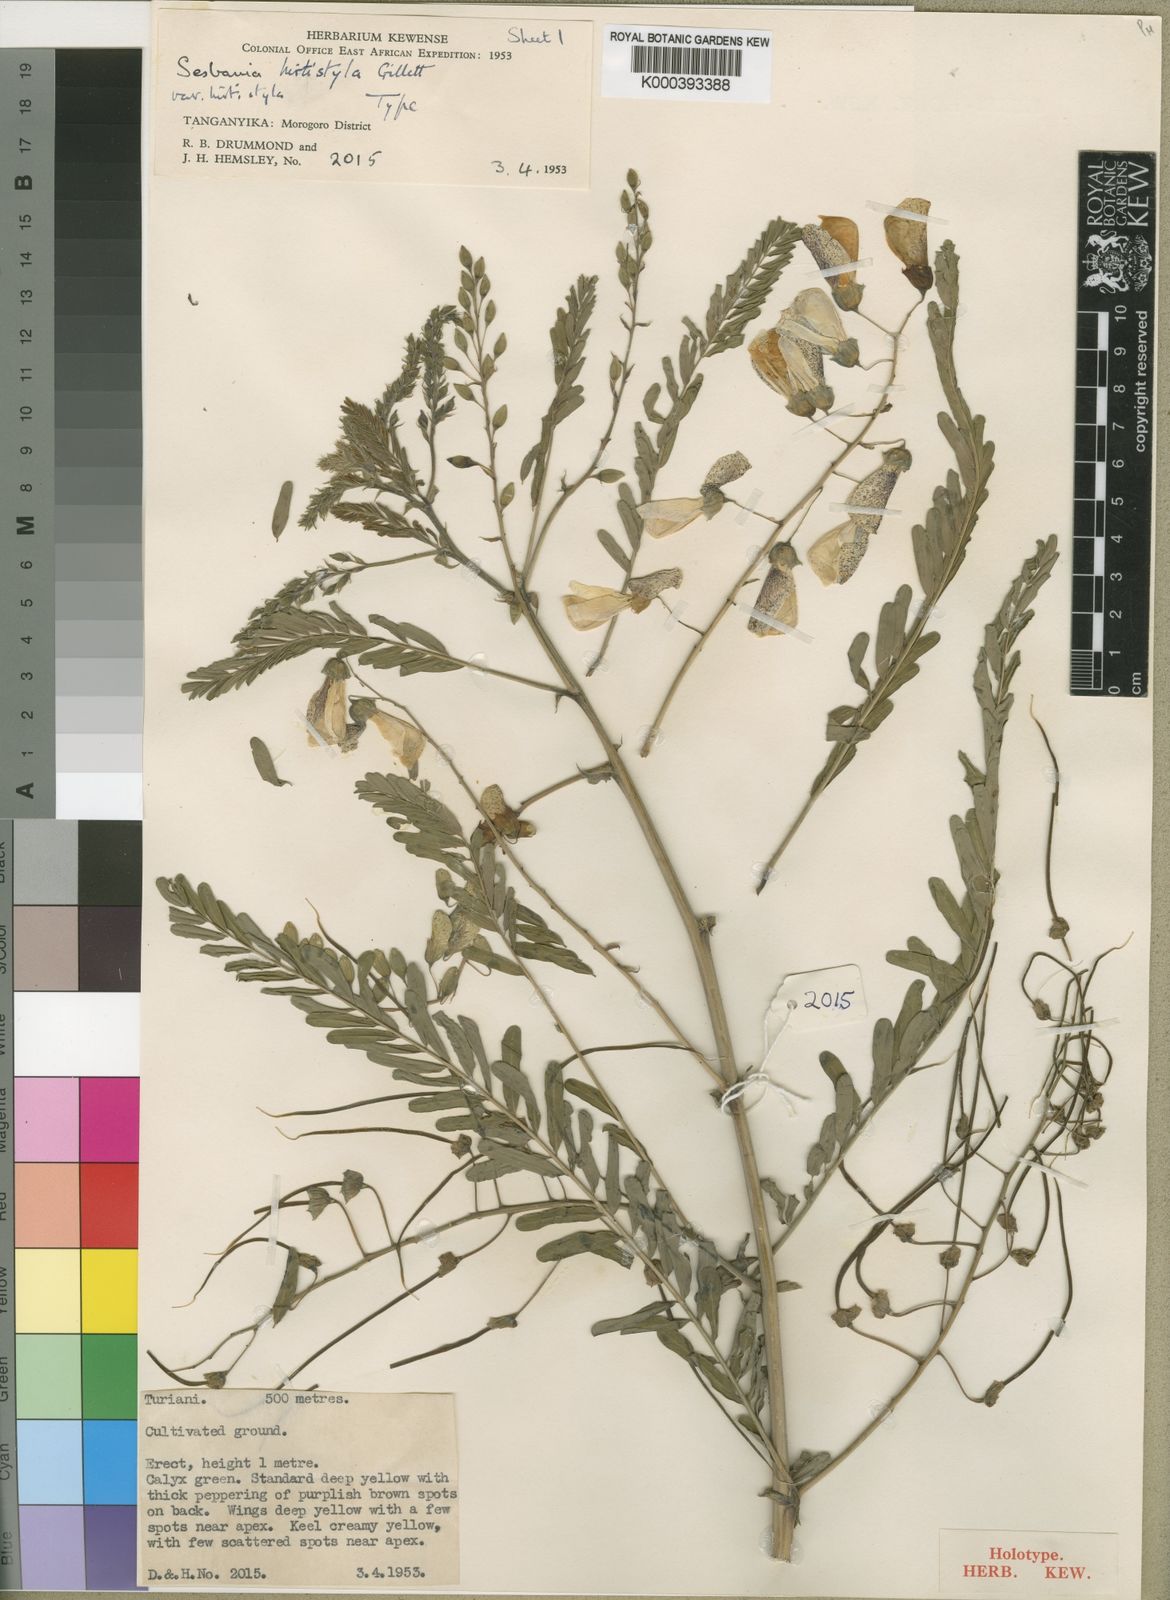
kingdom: Plantae
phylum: Tracheophyta
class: Magnoliopsida
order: Fabales
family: Fabaceae
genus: Sesbania
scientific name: Sesbania hirtistyla
